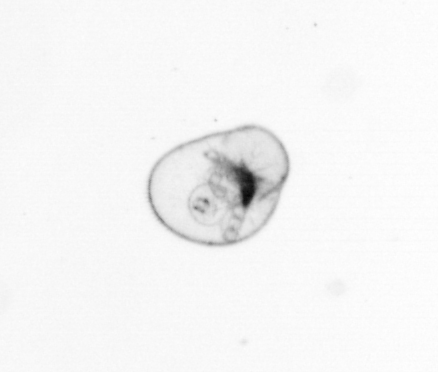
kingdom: Chromista
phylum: Myzozoa
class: Dinophyceae
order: Noctilucales
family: Noctilucaceae
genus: Noctiluca
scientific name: Noctiluca scintillans
